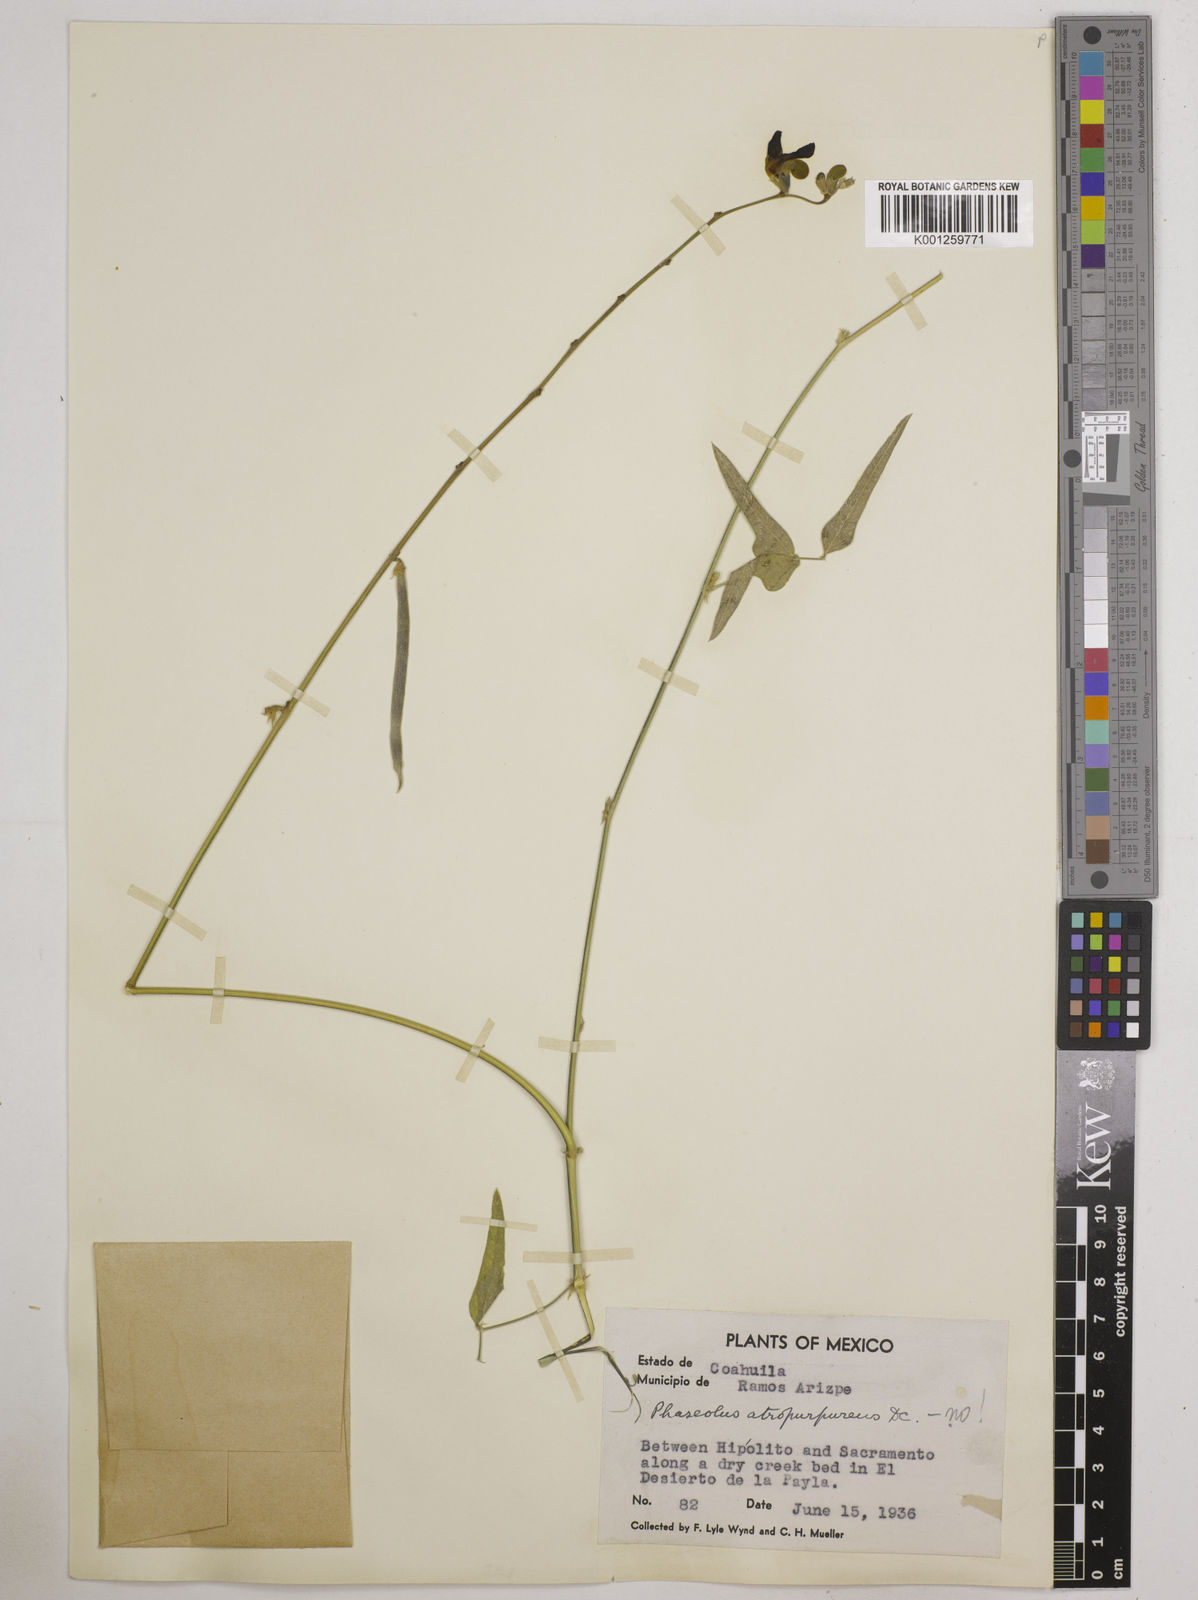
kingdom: Plantae
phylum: Tracheophyta
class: Magnoliopsida
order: Fabales
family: Fabaceae
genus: Macroptilium
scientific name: Macroptilium atropurpureum
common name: Purple bushbean
